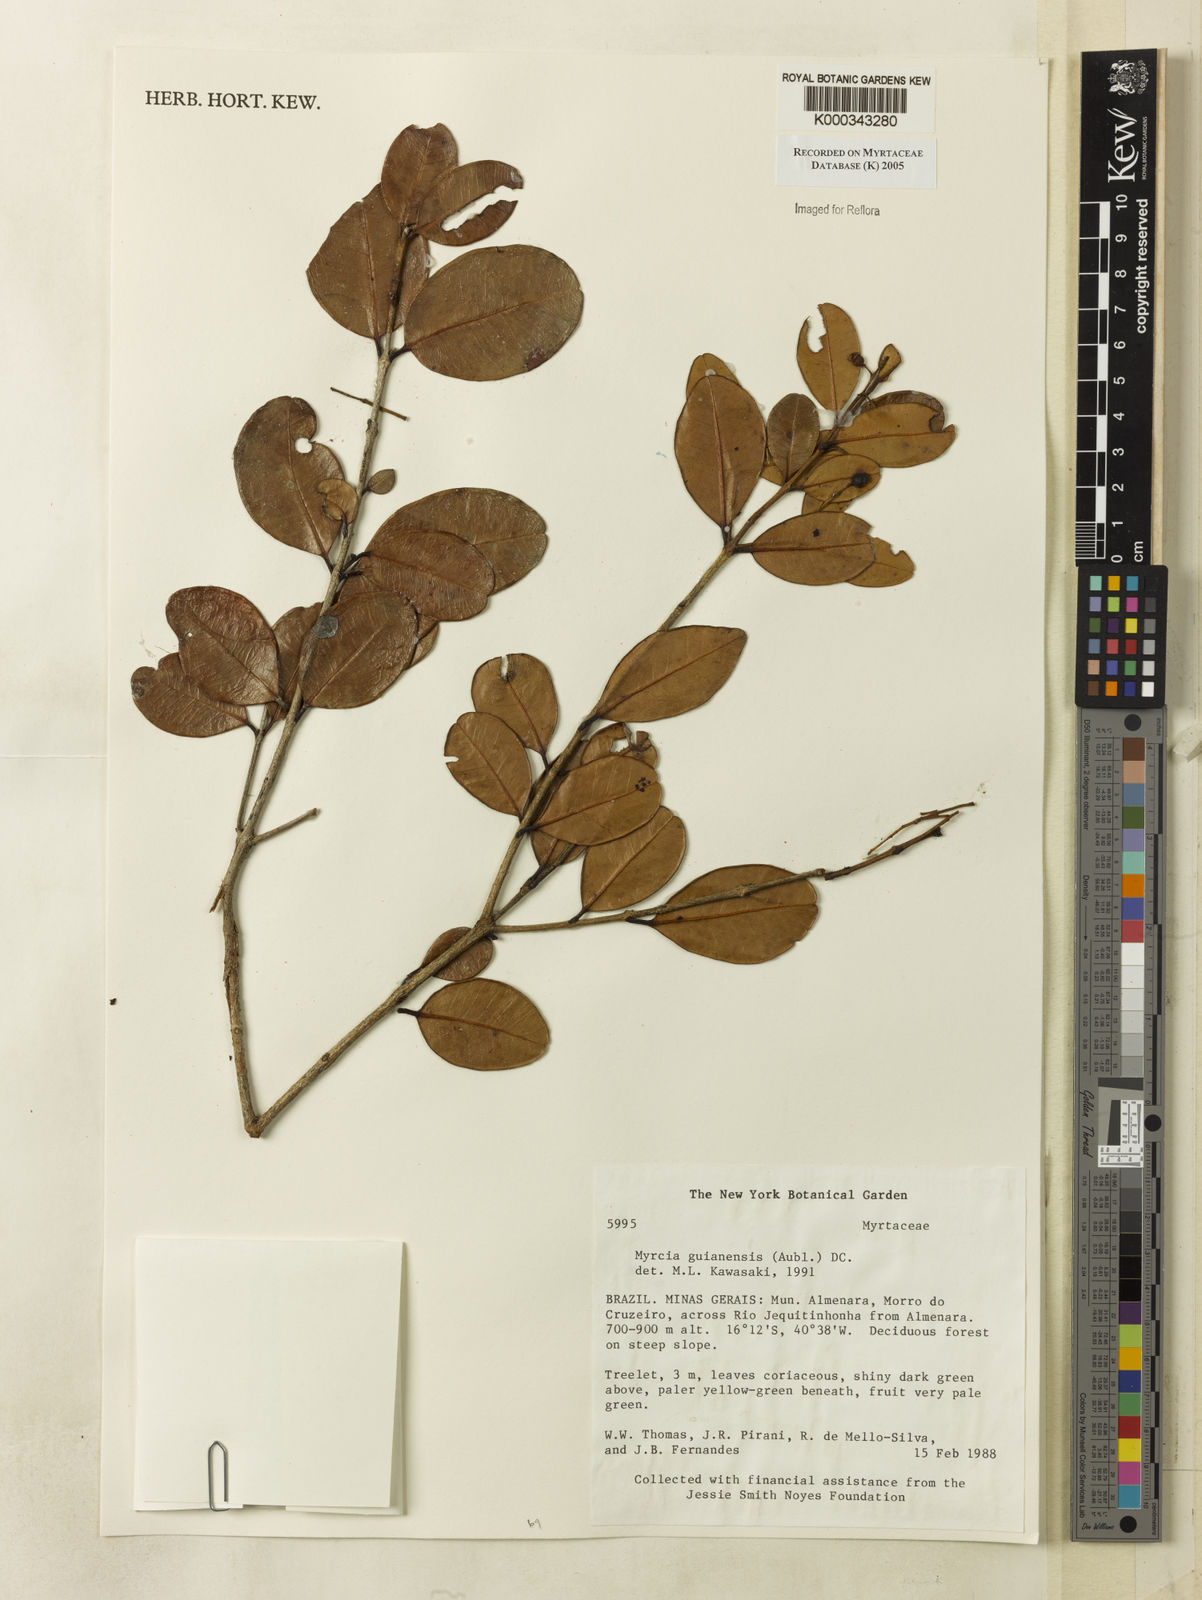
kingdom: Plantae
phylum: Tracheophyta
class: Magnoliopsida
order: Myrtales
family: Myrtaceae
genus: Myrcia
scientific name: Myrcia guianensis
